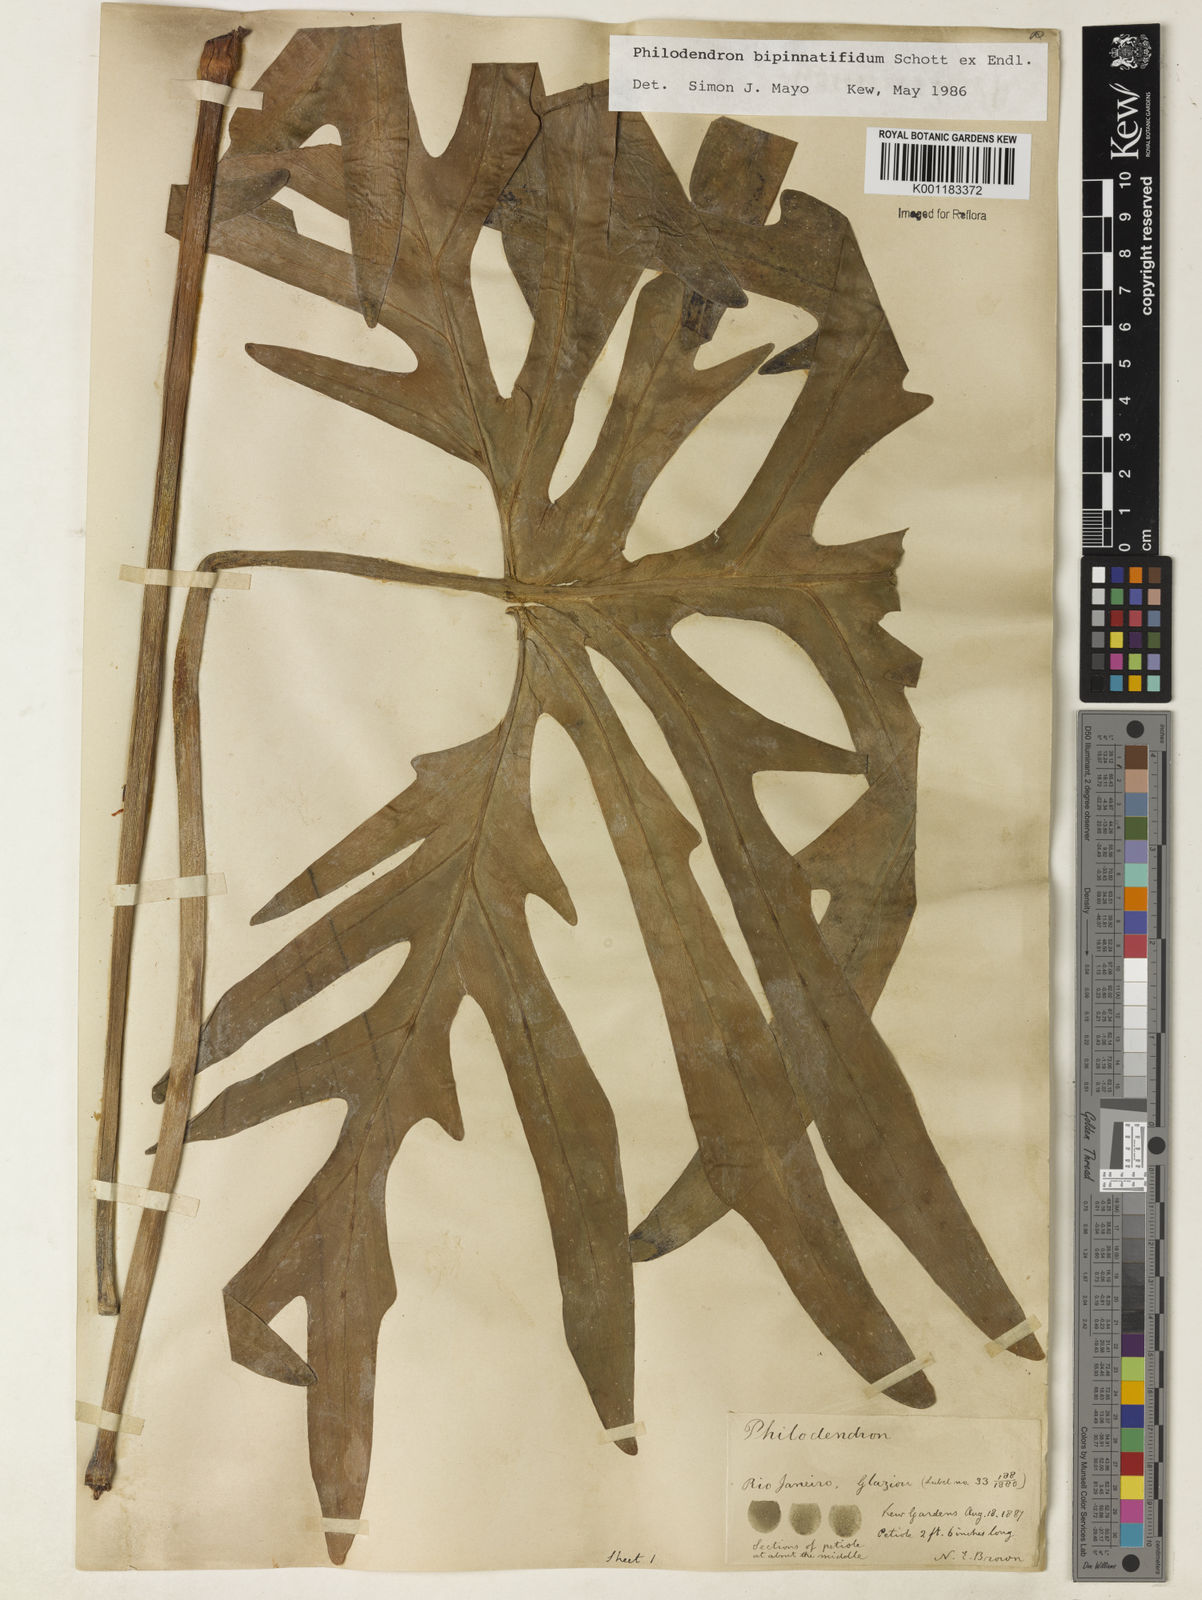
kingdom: Plantae
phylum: Tracheophyta
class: Liliopsida
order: Alismatales
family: Araceae
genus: Philodendron
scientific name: Philodendron
